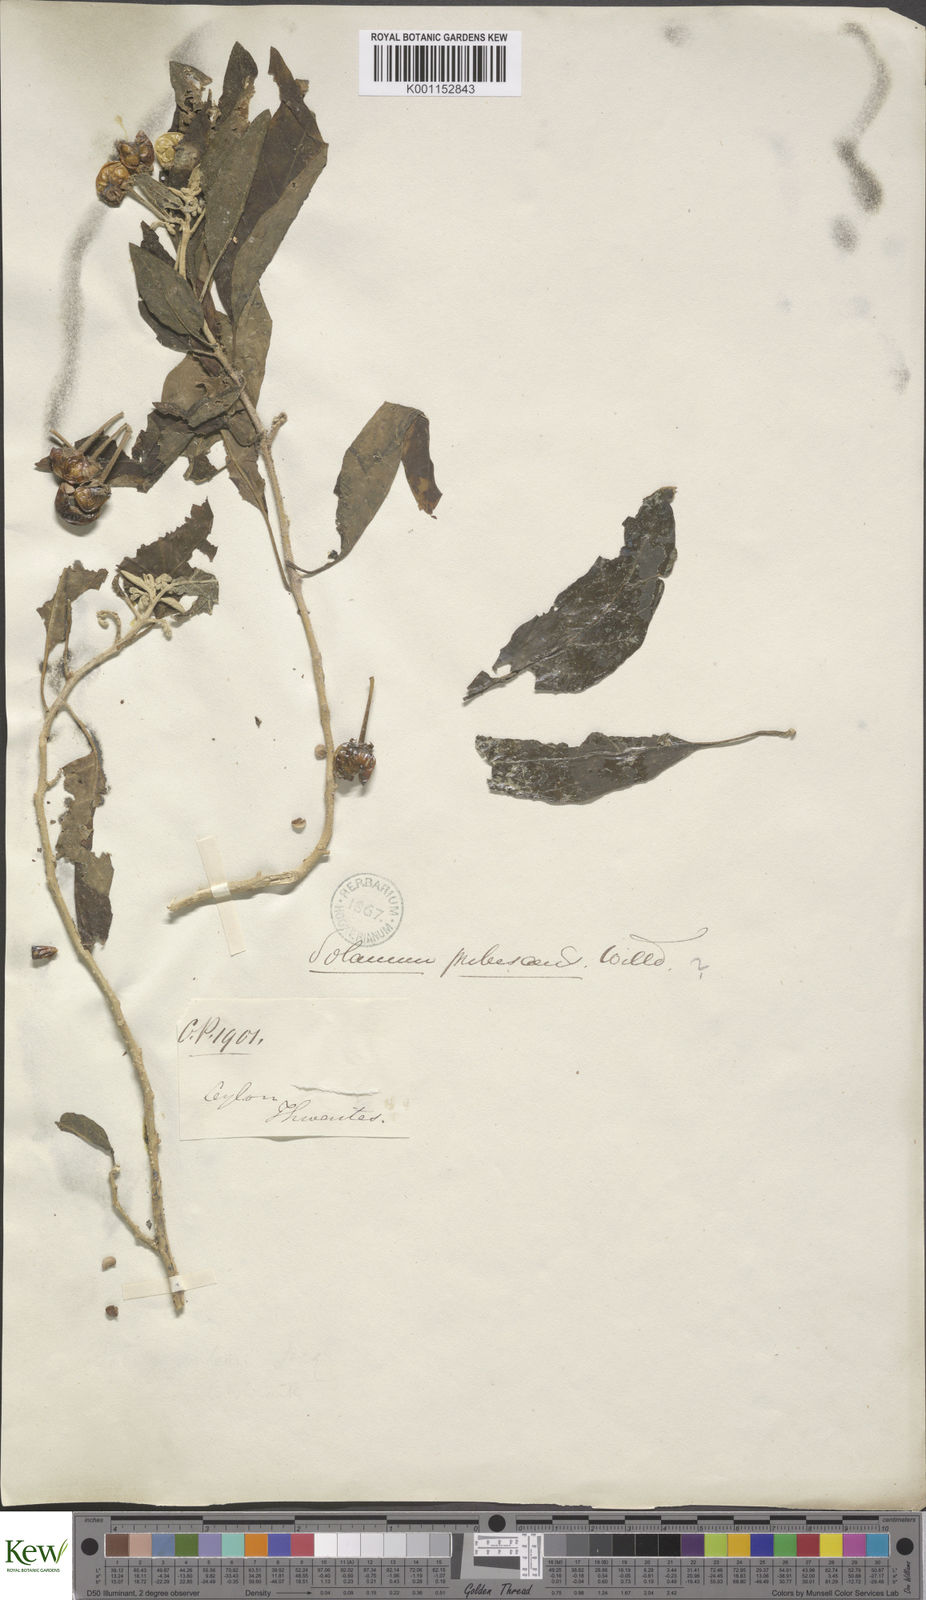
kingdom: Plantae
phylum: Tracheophyta
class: Magnoliopsida
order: Solanales
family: Solanaceae
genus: Solanum
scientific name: Solanum
